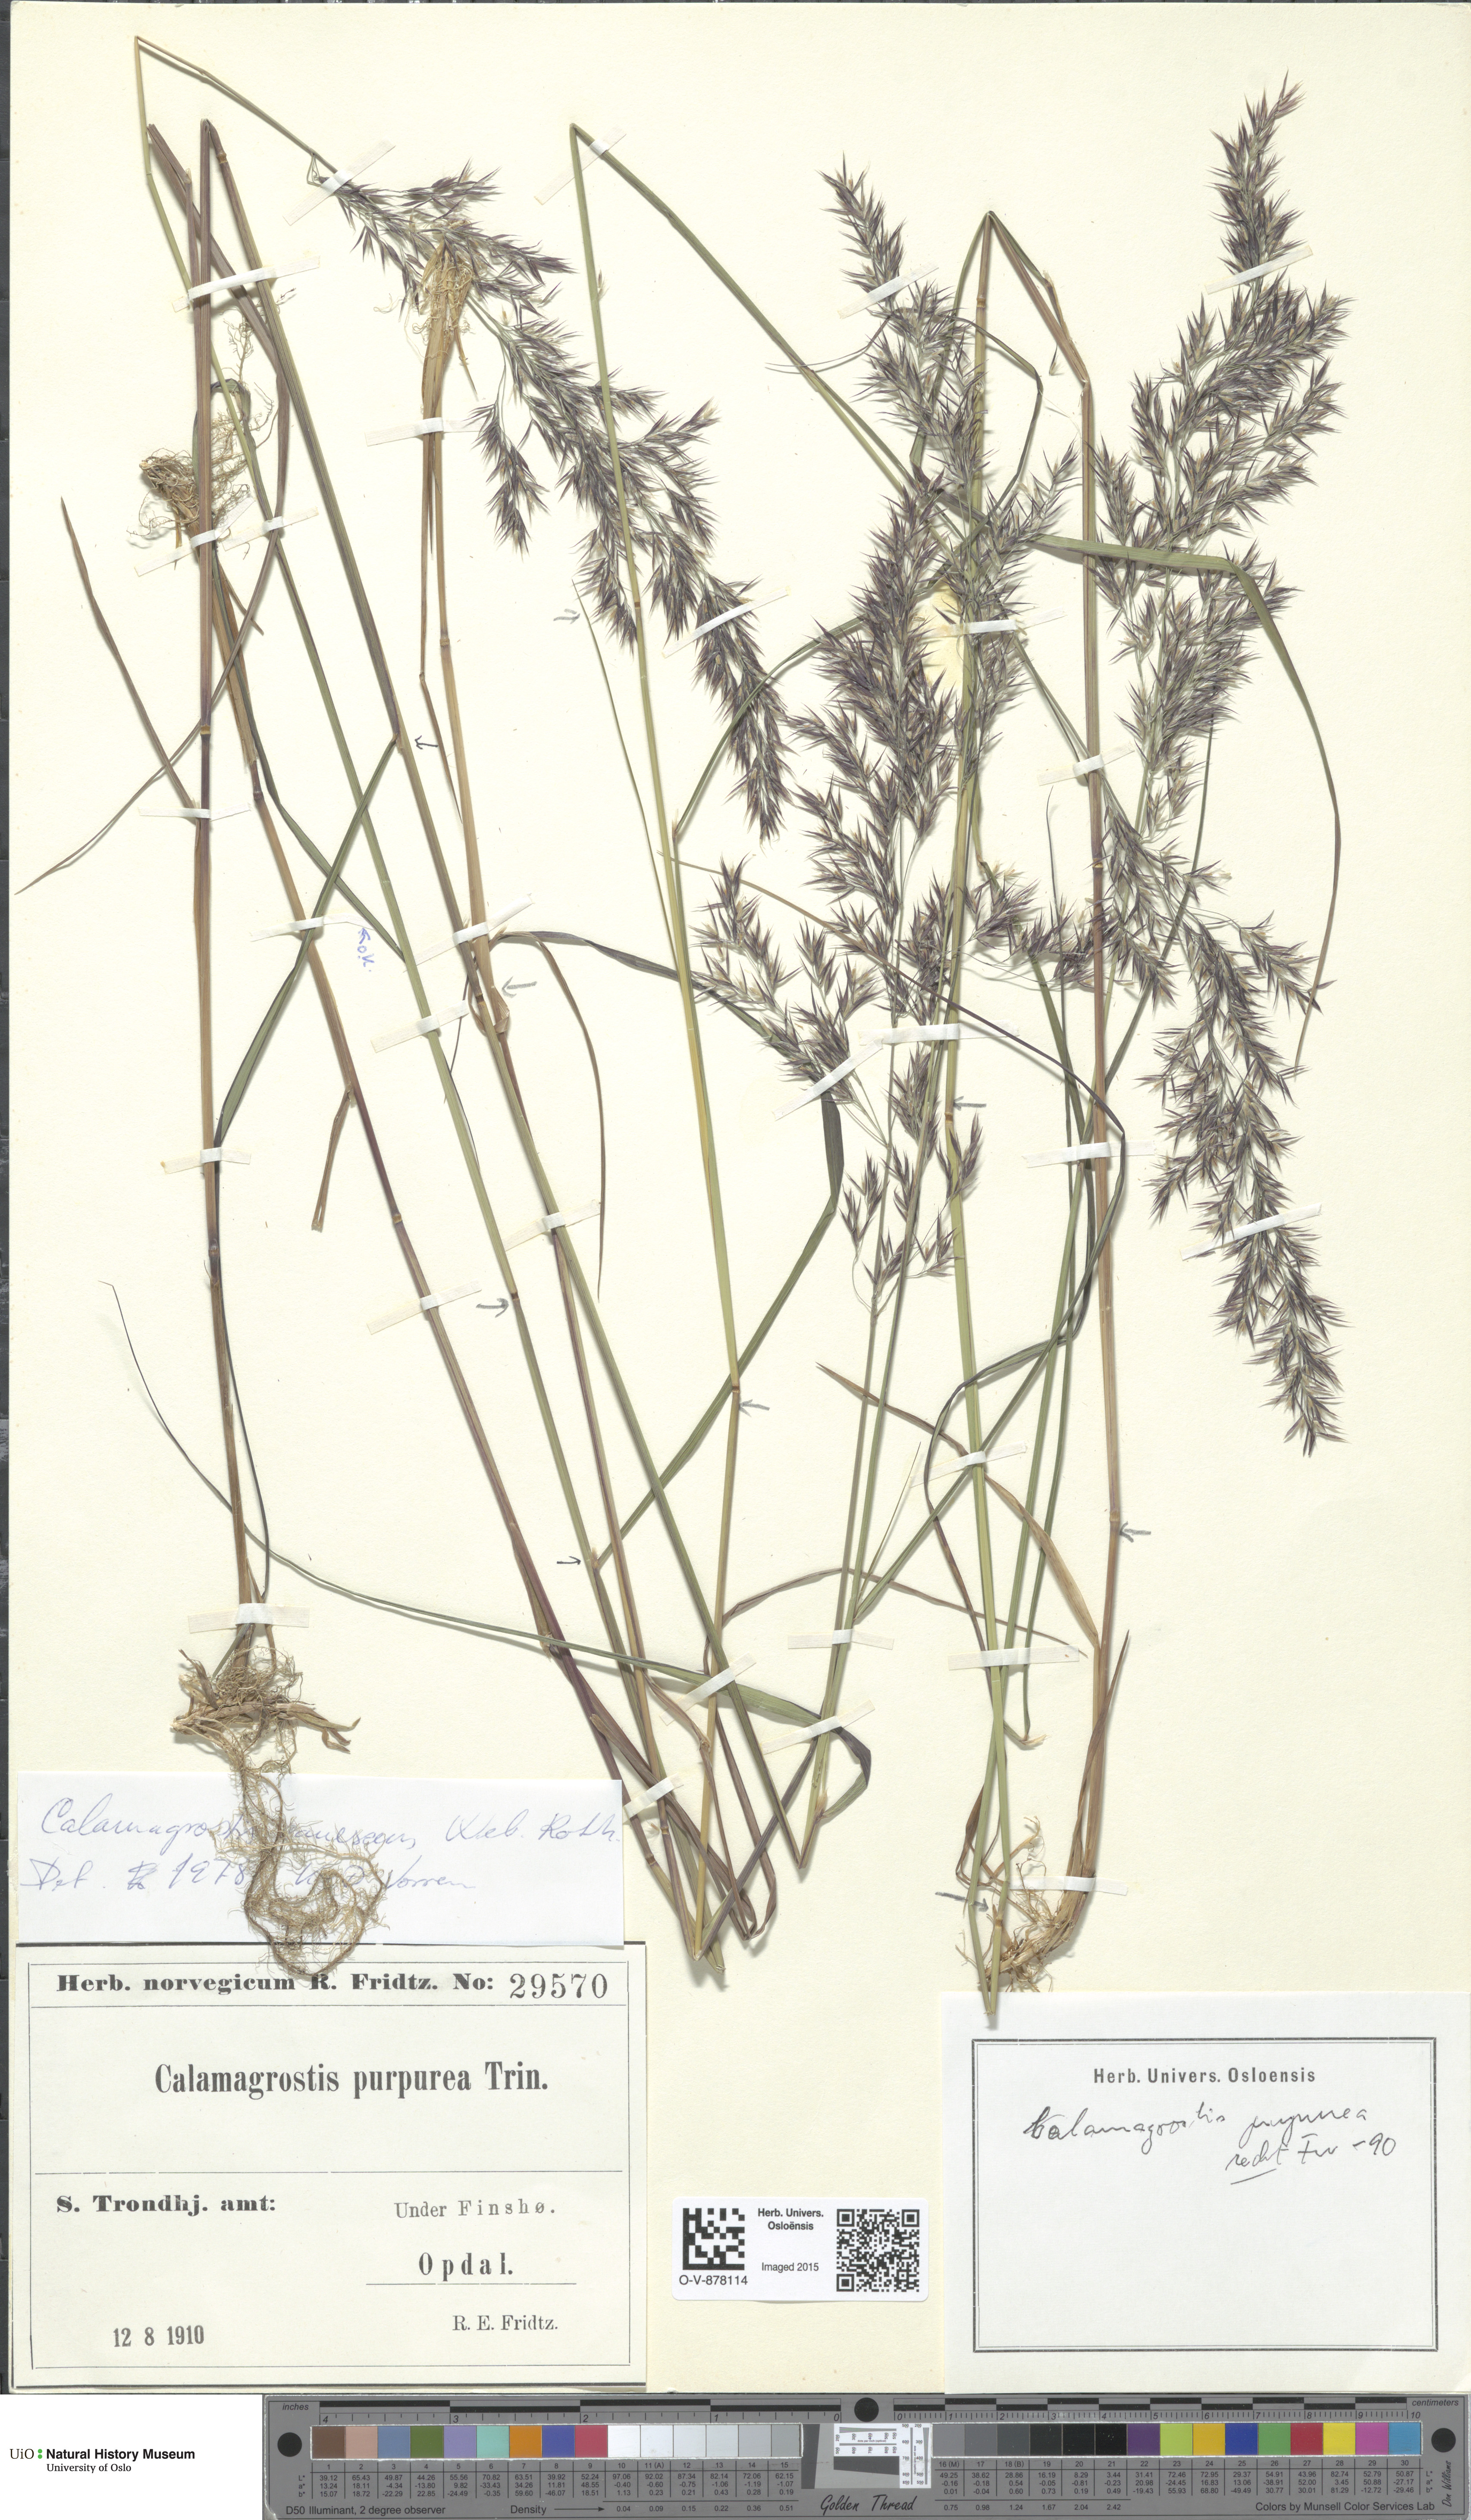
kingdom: Plantae
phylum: Tracheophyta
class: Liliopsida
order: Poales
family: Poaceae
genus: Calamagrostis
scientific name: Calamagrostis purpurea
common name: Scandinavian small-reed
